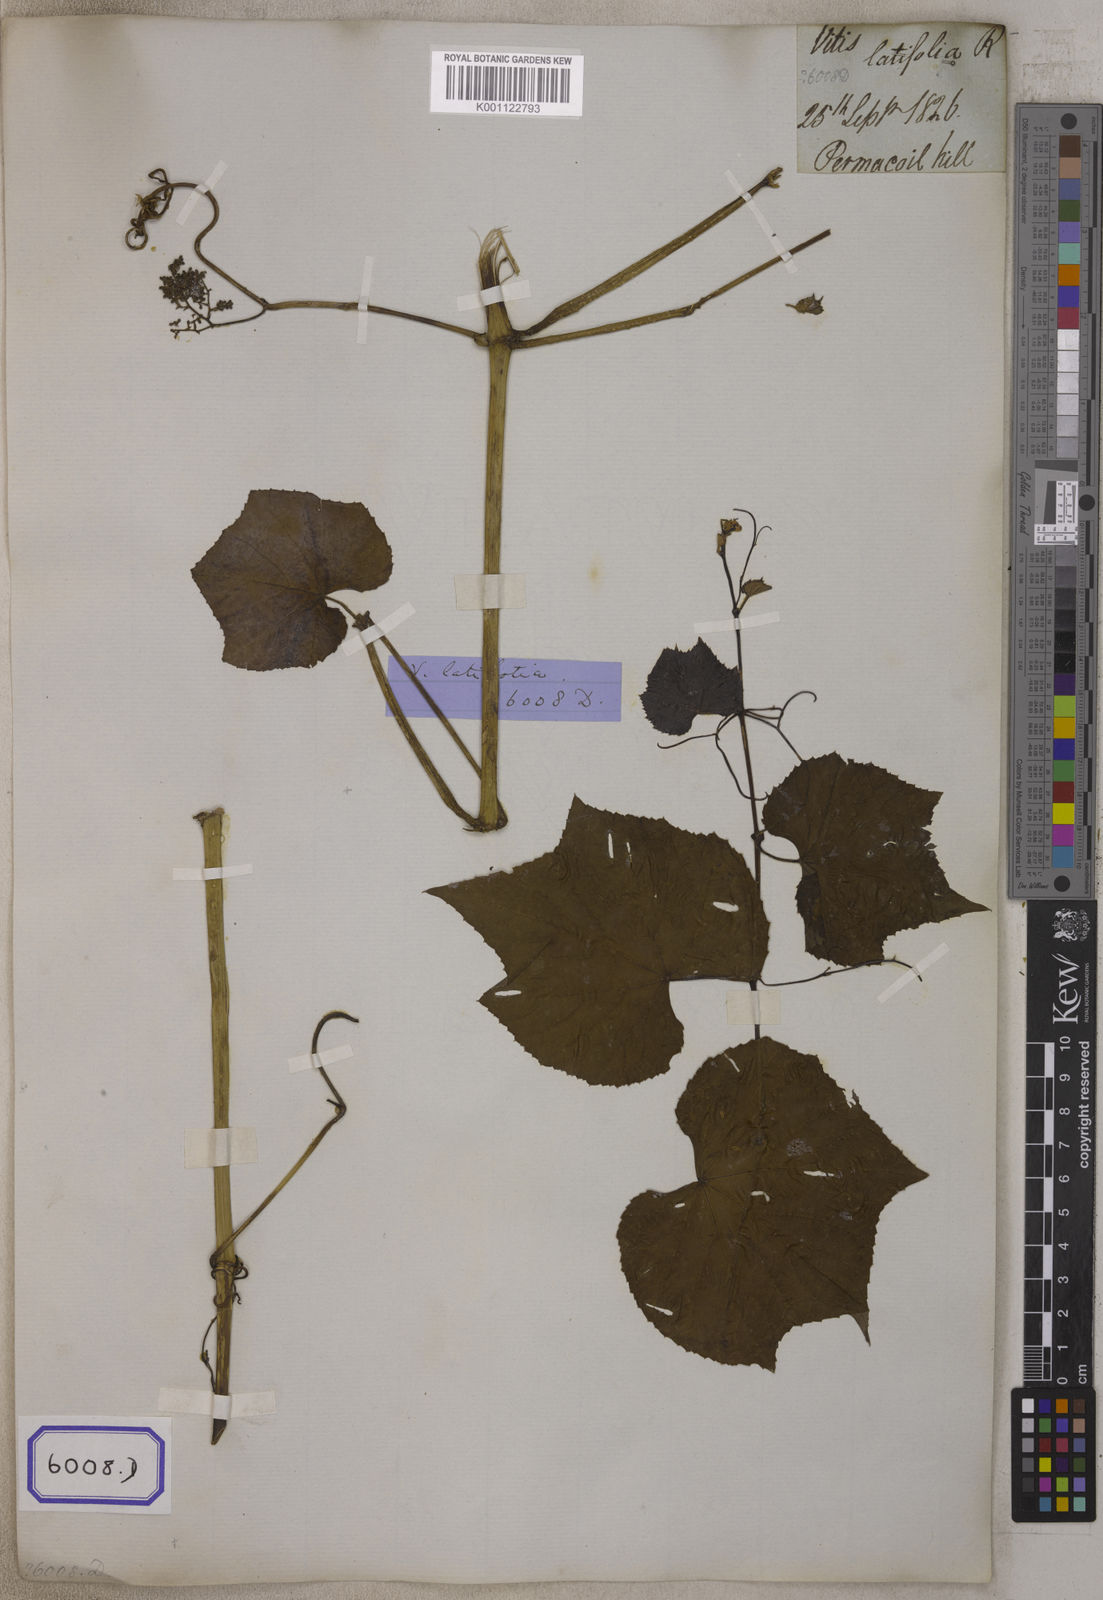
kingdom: Plantae
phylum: Tracheophyta
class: Magnoliopsida
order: Vitales
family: Vitaceae
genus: Cissus
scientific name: Cissus repens
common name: Cissus
